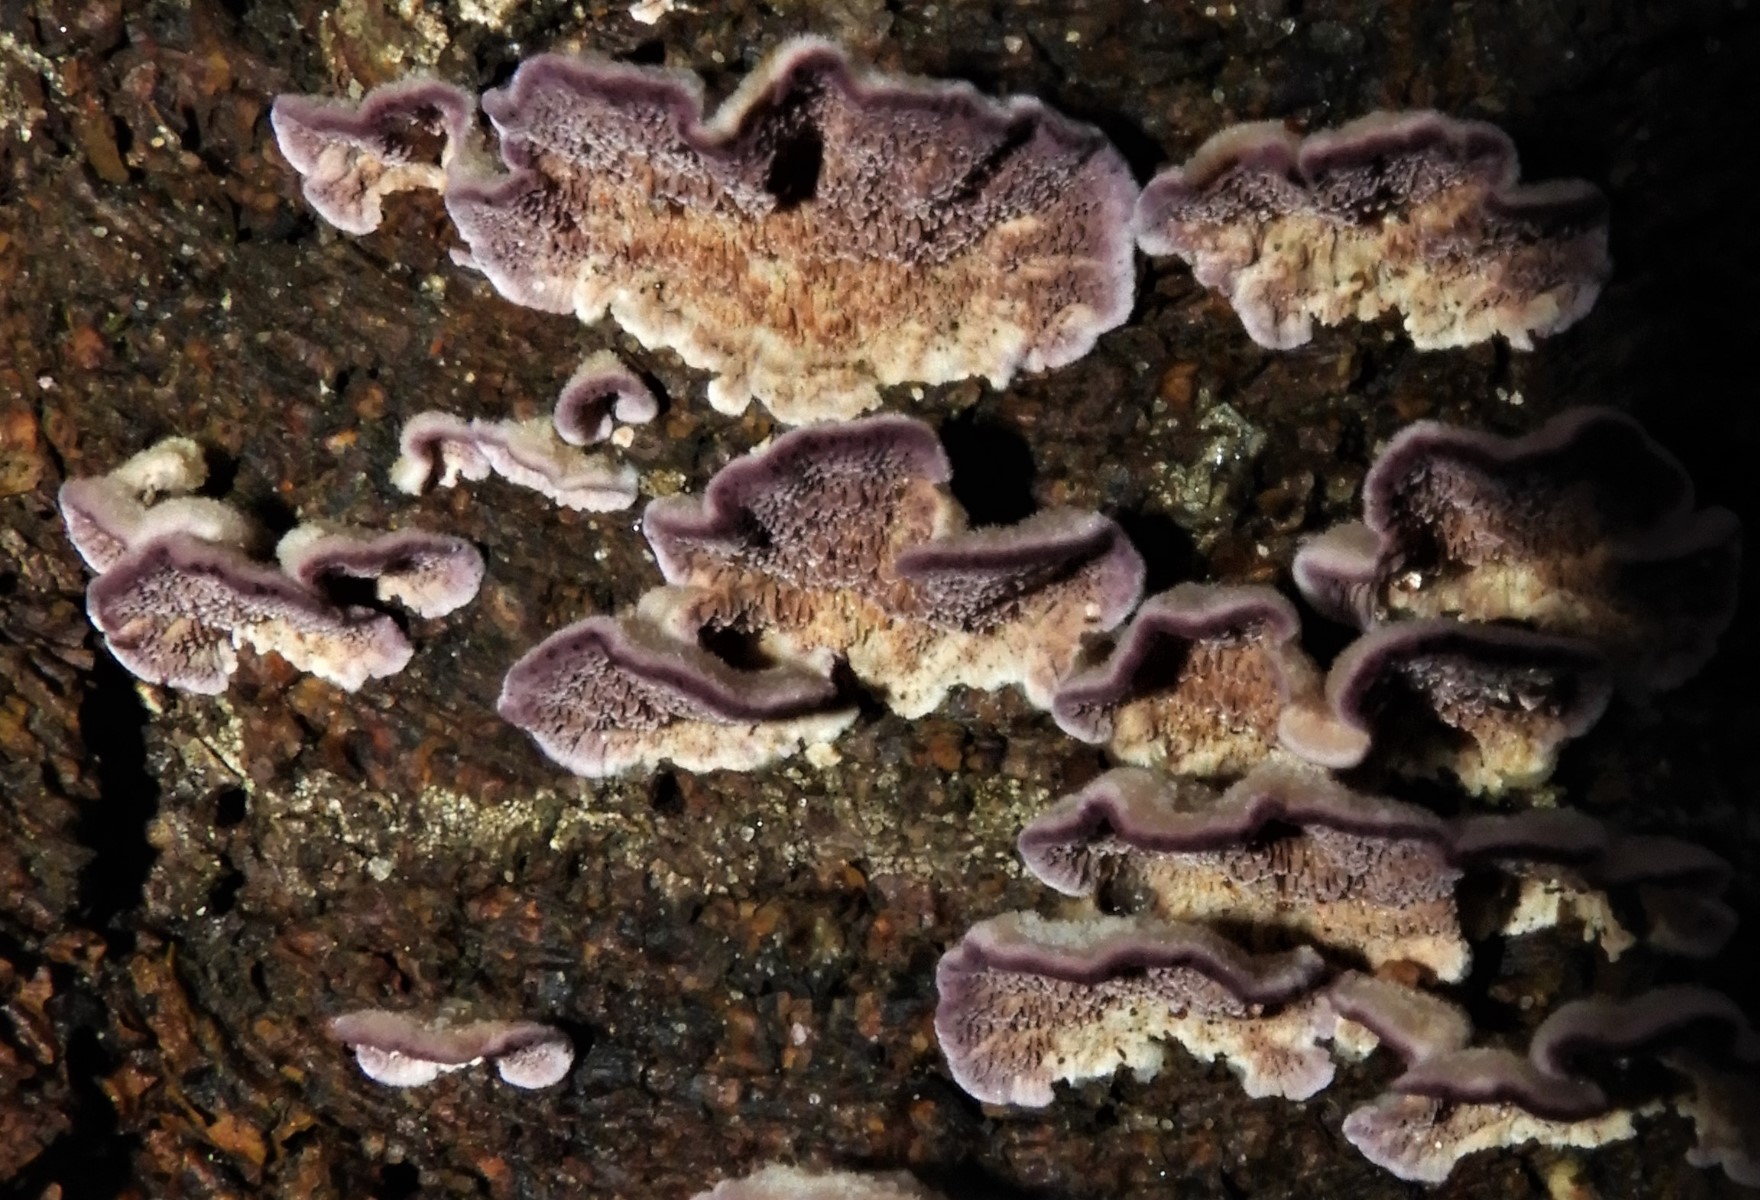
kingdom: Fungi
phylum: Basidiomycota
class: Agaricomycetes
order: Hymenochaetales
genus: Trichaptum
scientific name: Trichaptum fuscoviolaceum
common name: tandet violporesvamp
